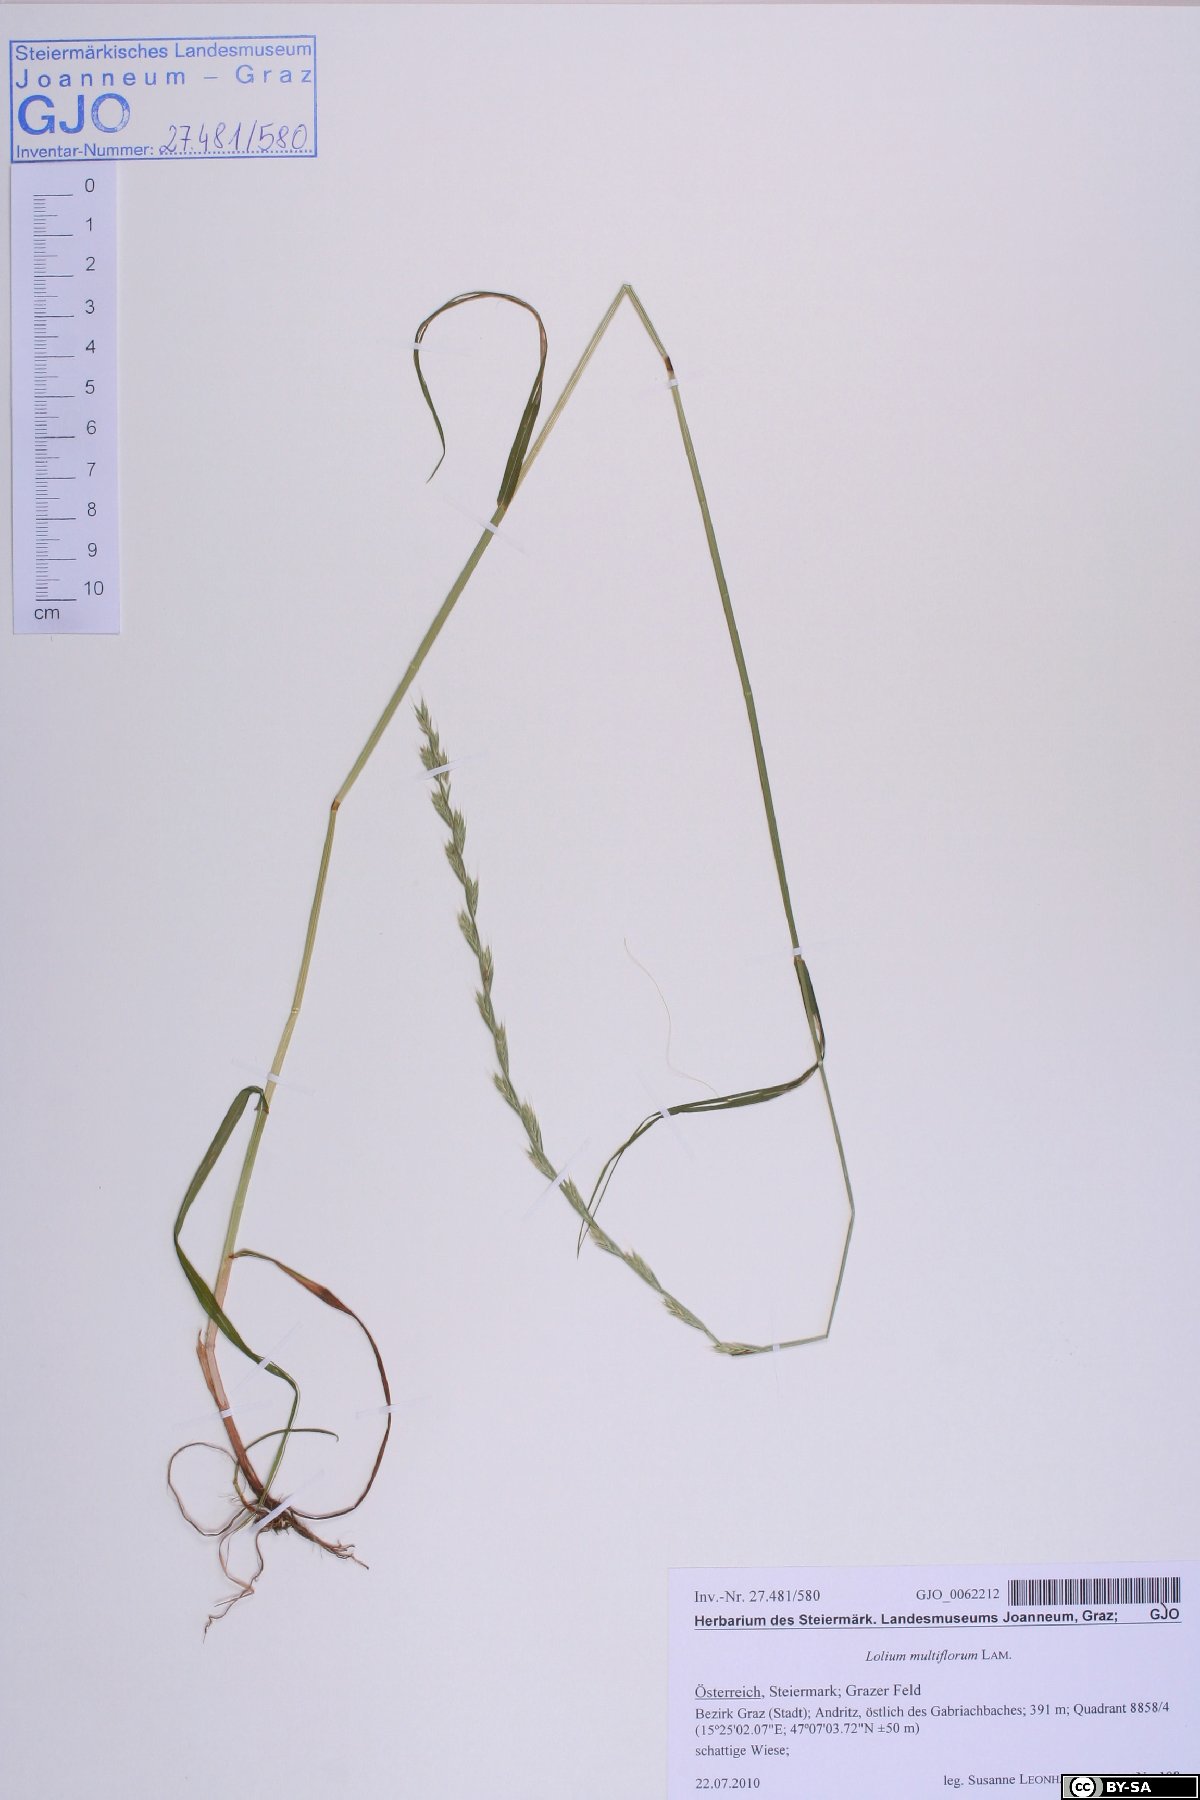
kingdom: Plantae
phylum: Tracheophyta
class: Liliopsida
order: Poales
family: Poaceae
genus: Lolium
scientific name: Lolium multiflorum
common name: Annual ryegrass
